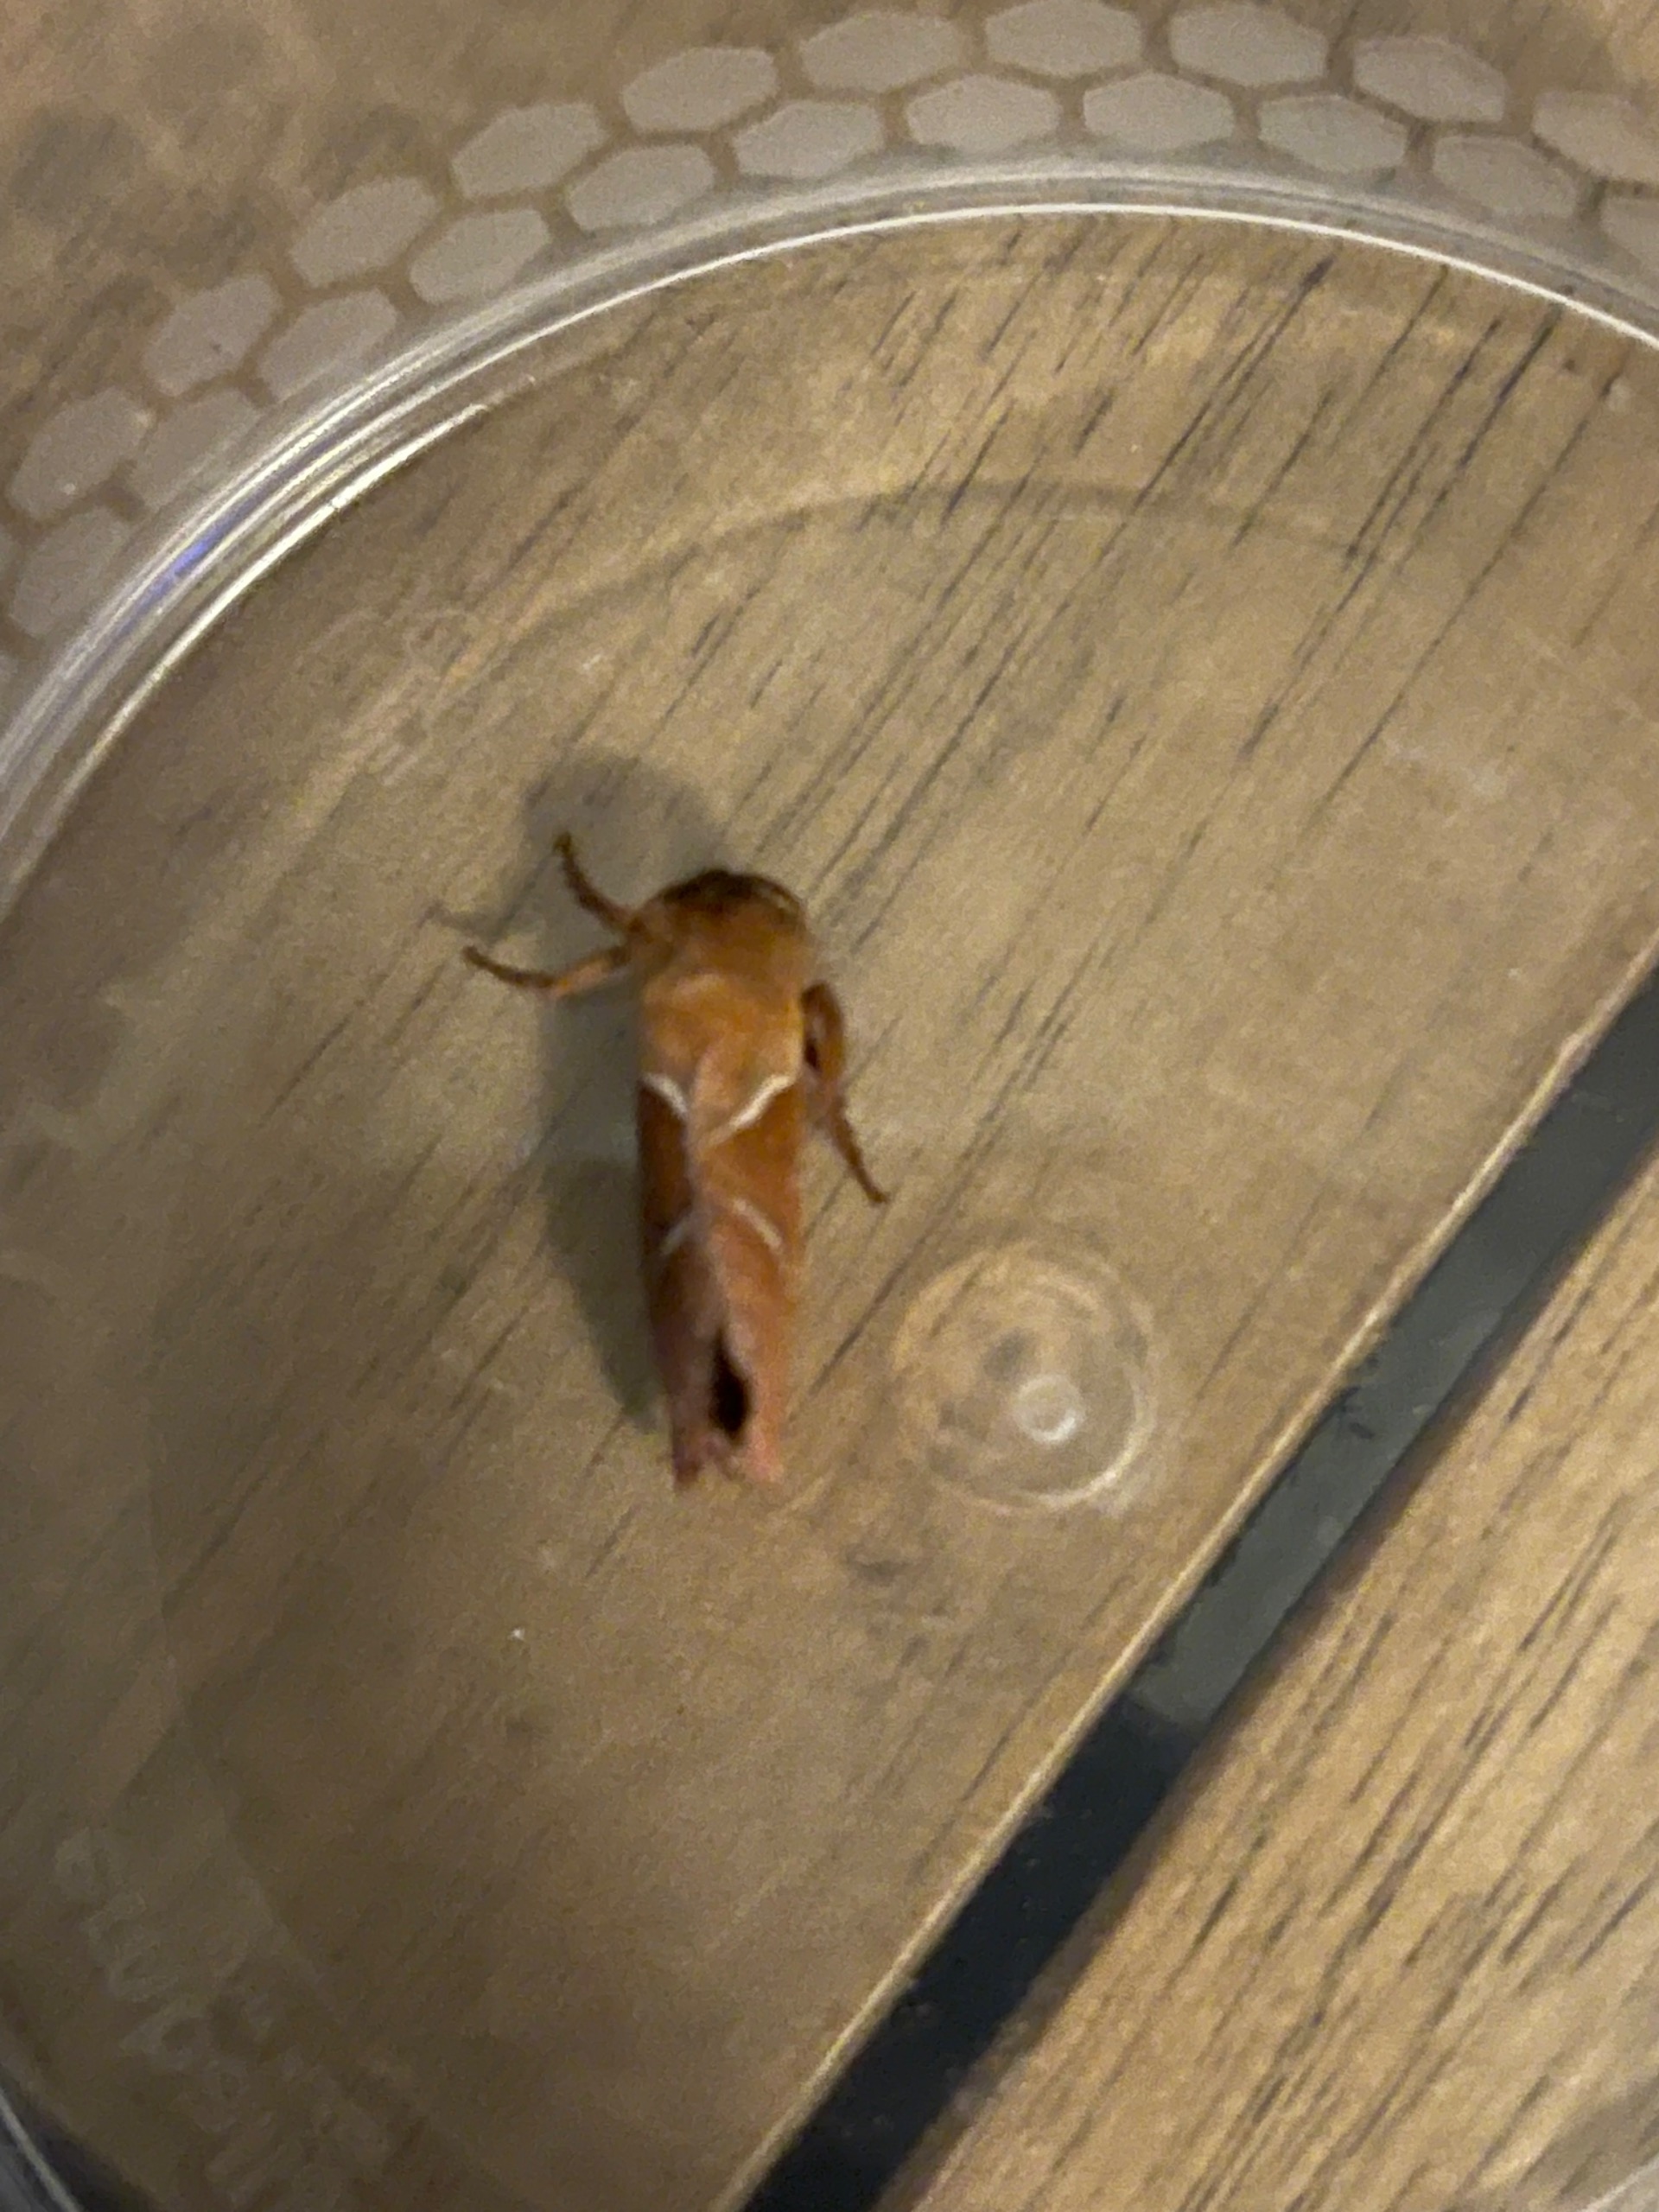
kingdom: Animalia
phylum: Arthropoda
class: Insecta
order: Lepidoptera
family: Hepialidae
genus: Triodia
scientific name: Triodia sylvina
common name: Skræpperodæder
